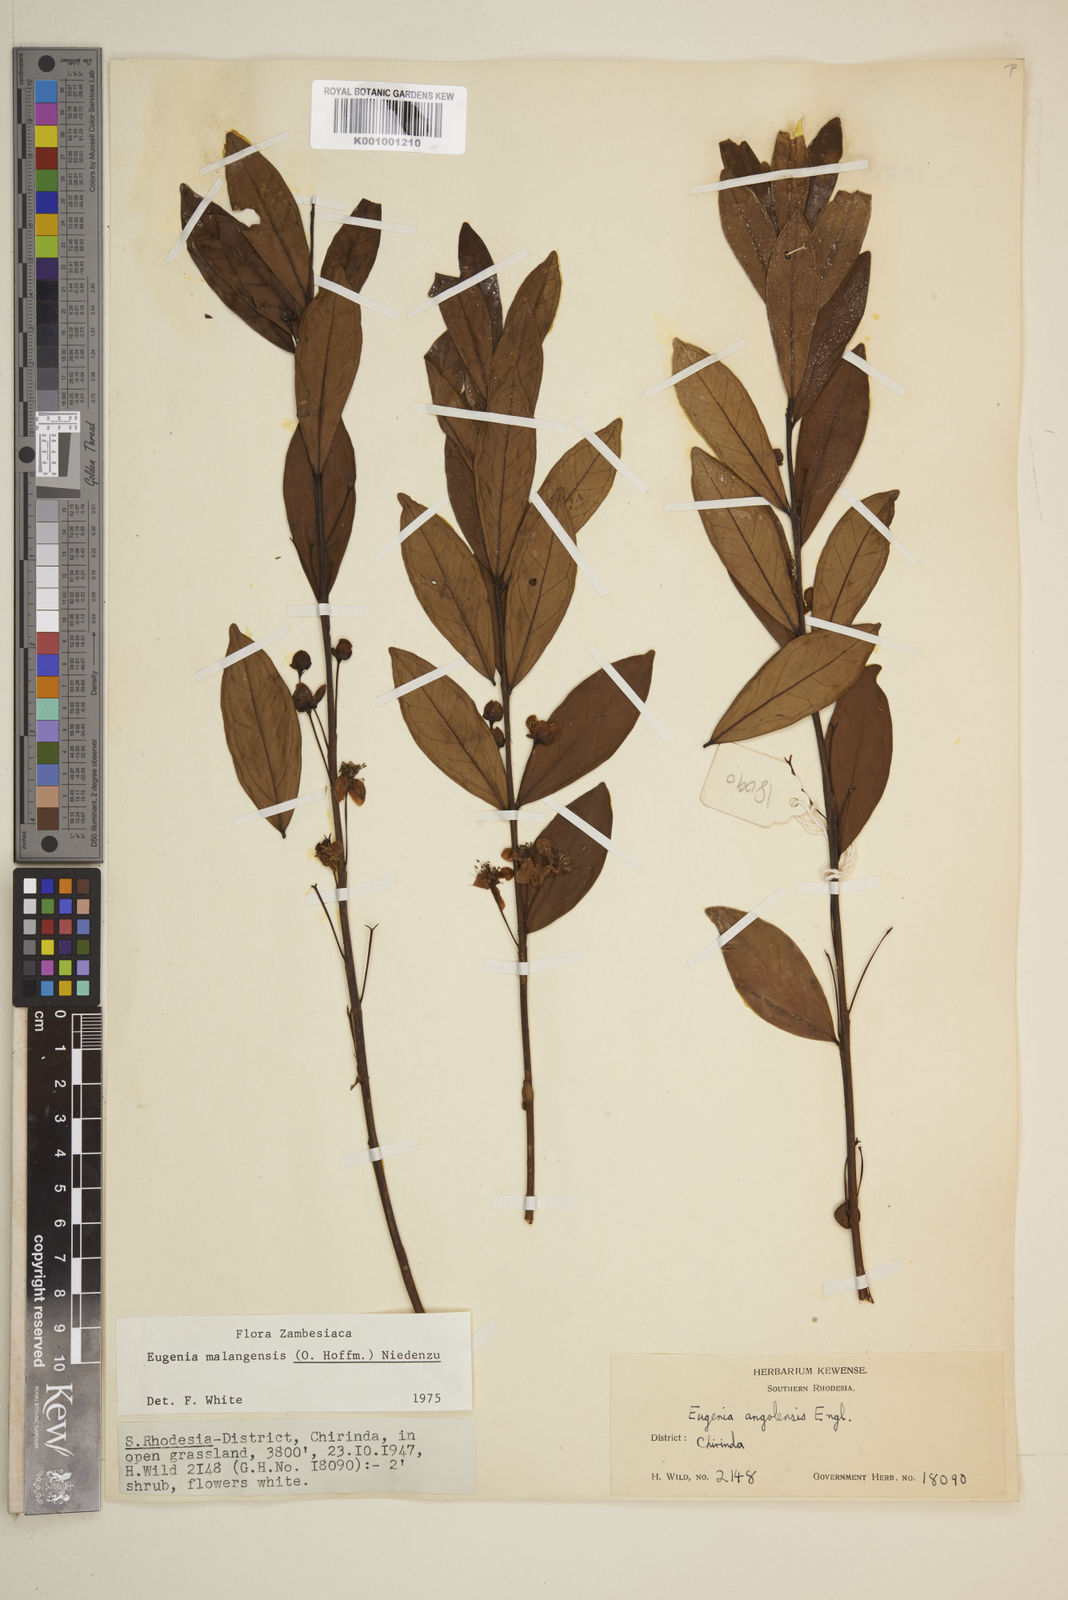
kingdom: Plantae
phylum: Tracheophyta
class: Magnoliopsida
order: Myrtales
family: Myrtaceae
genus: Eugenia
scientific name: Eugenia malangensis
